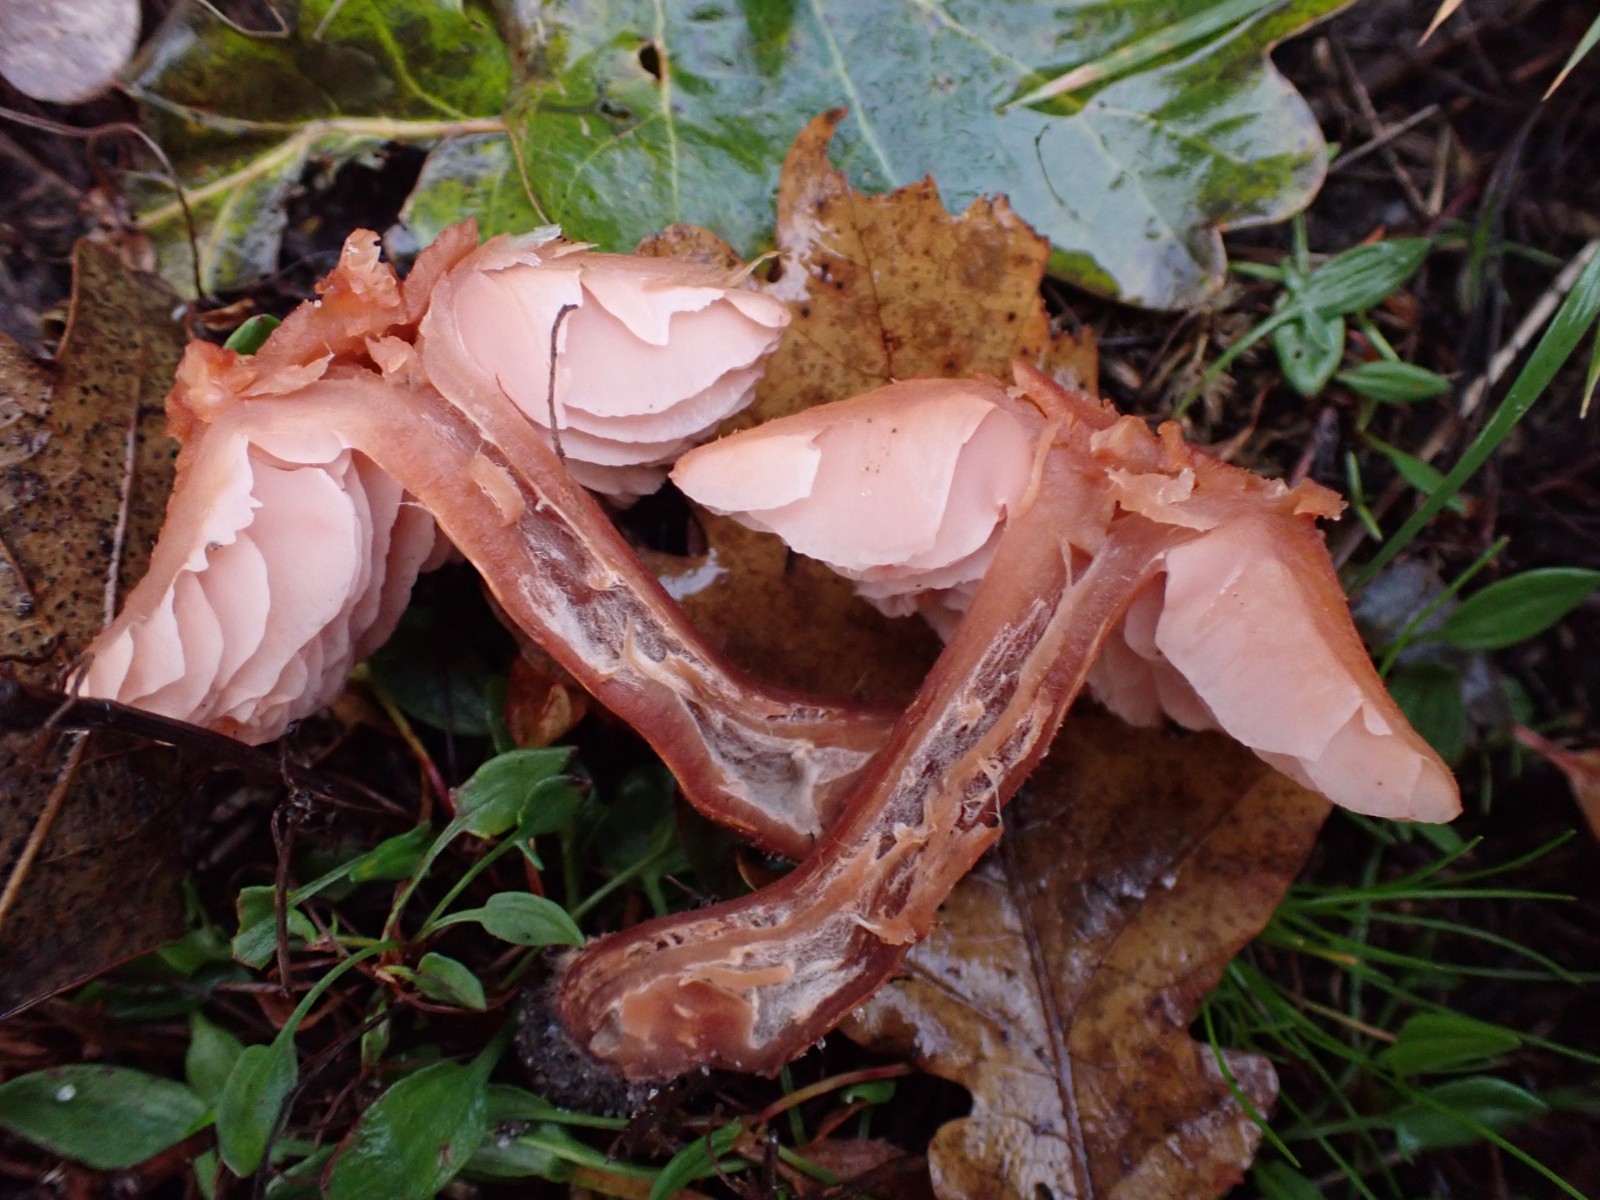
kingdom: Fungi
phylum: Basidiomycota
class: Agaricomycetes
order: Agaricales
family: Hydnangiaceae
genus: Laccaria
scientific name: Laccaria proxima
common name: stor ametysthat
